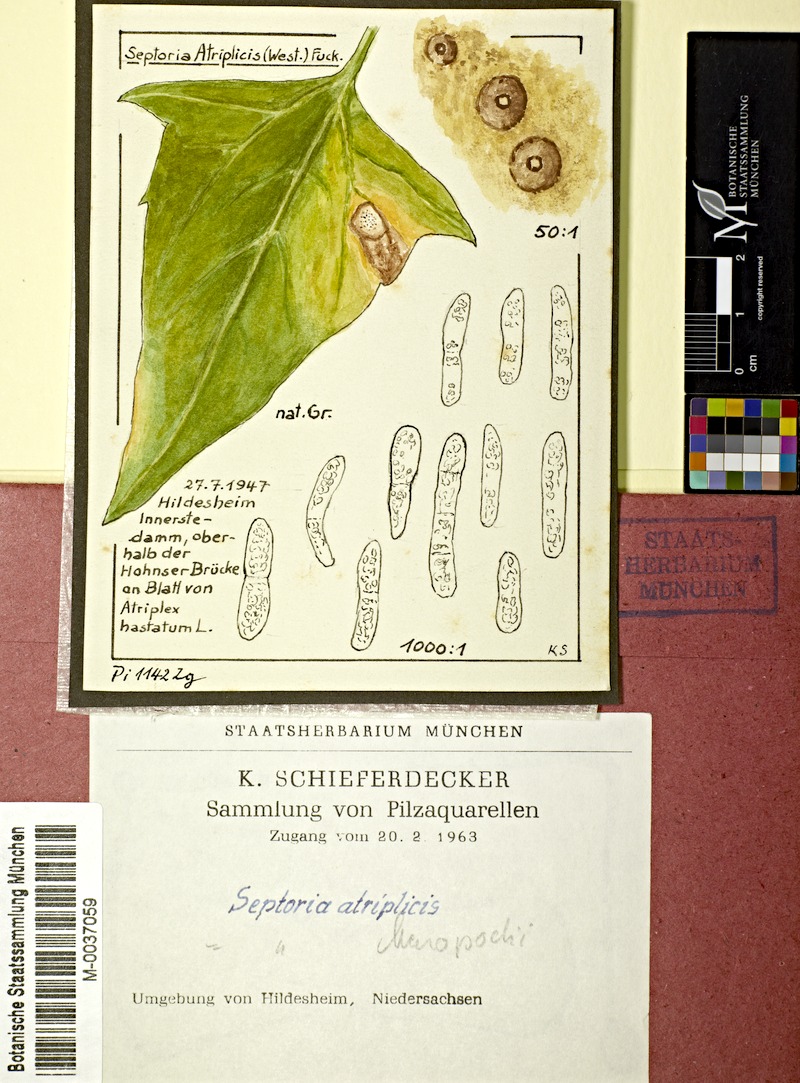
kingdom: Fungi
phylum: Ascomycota
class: Dothideomycetes
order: Pleosporales
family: Phaeosphaeriaceae
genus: Stagonospora
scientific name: Stagonospora atriplicis
